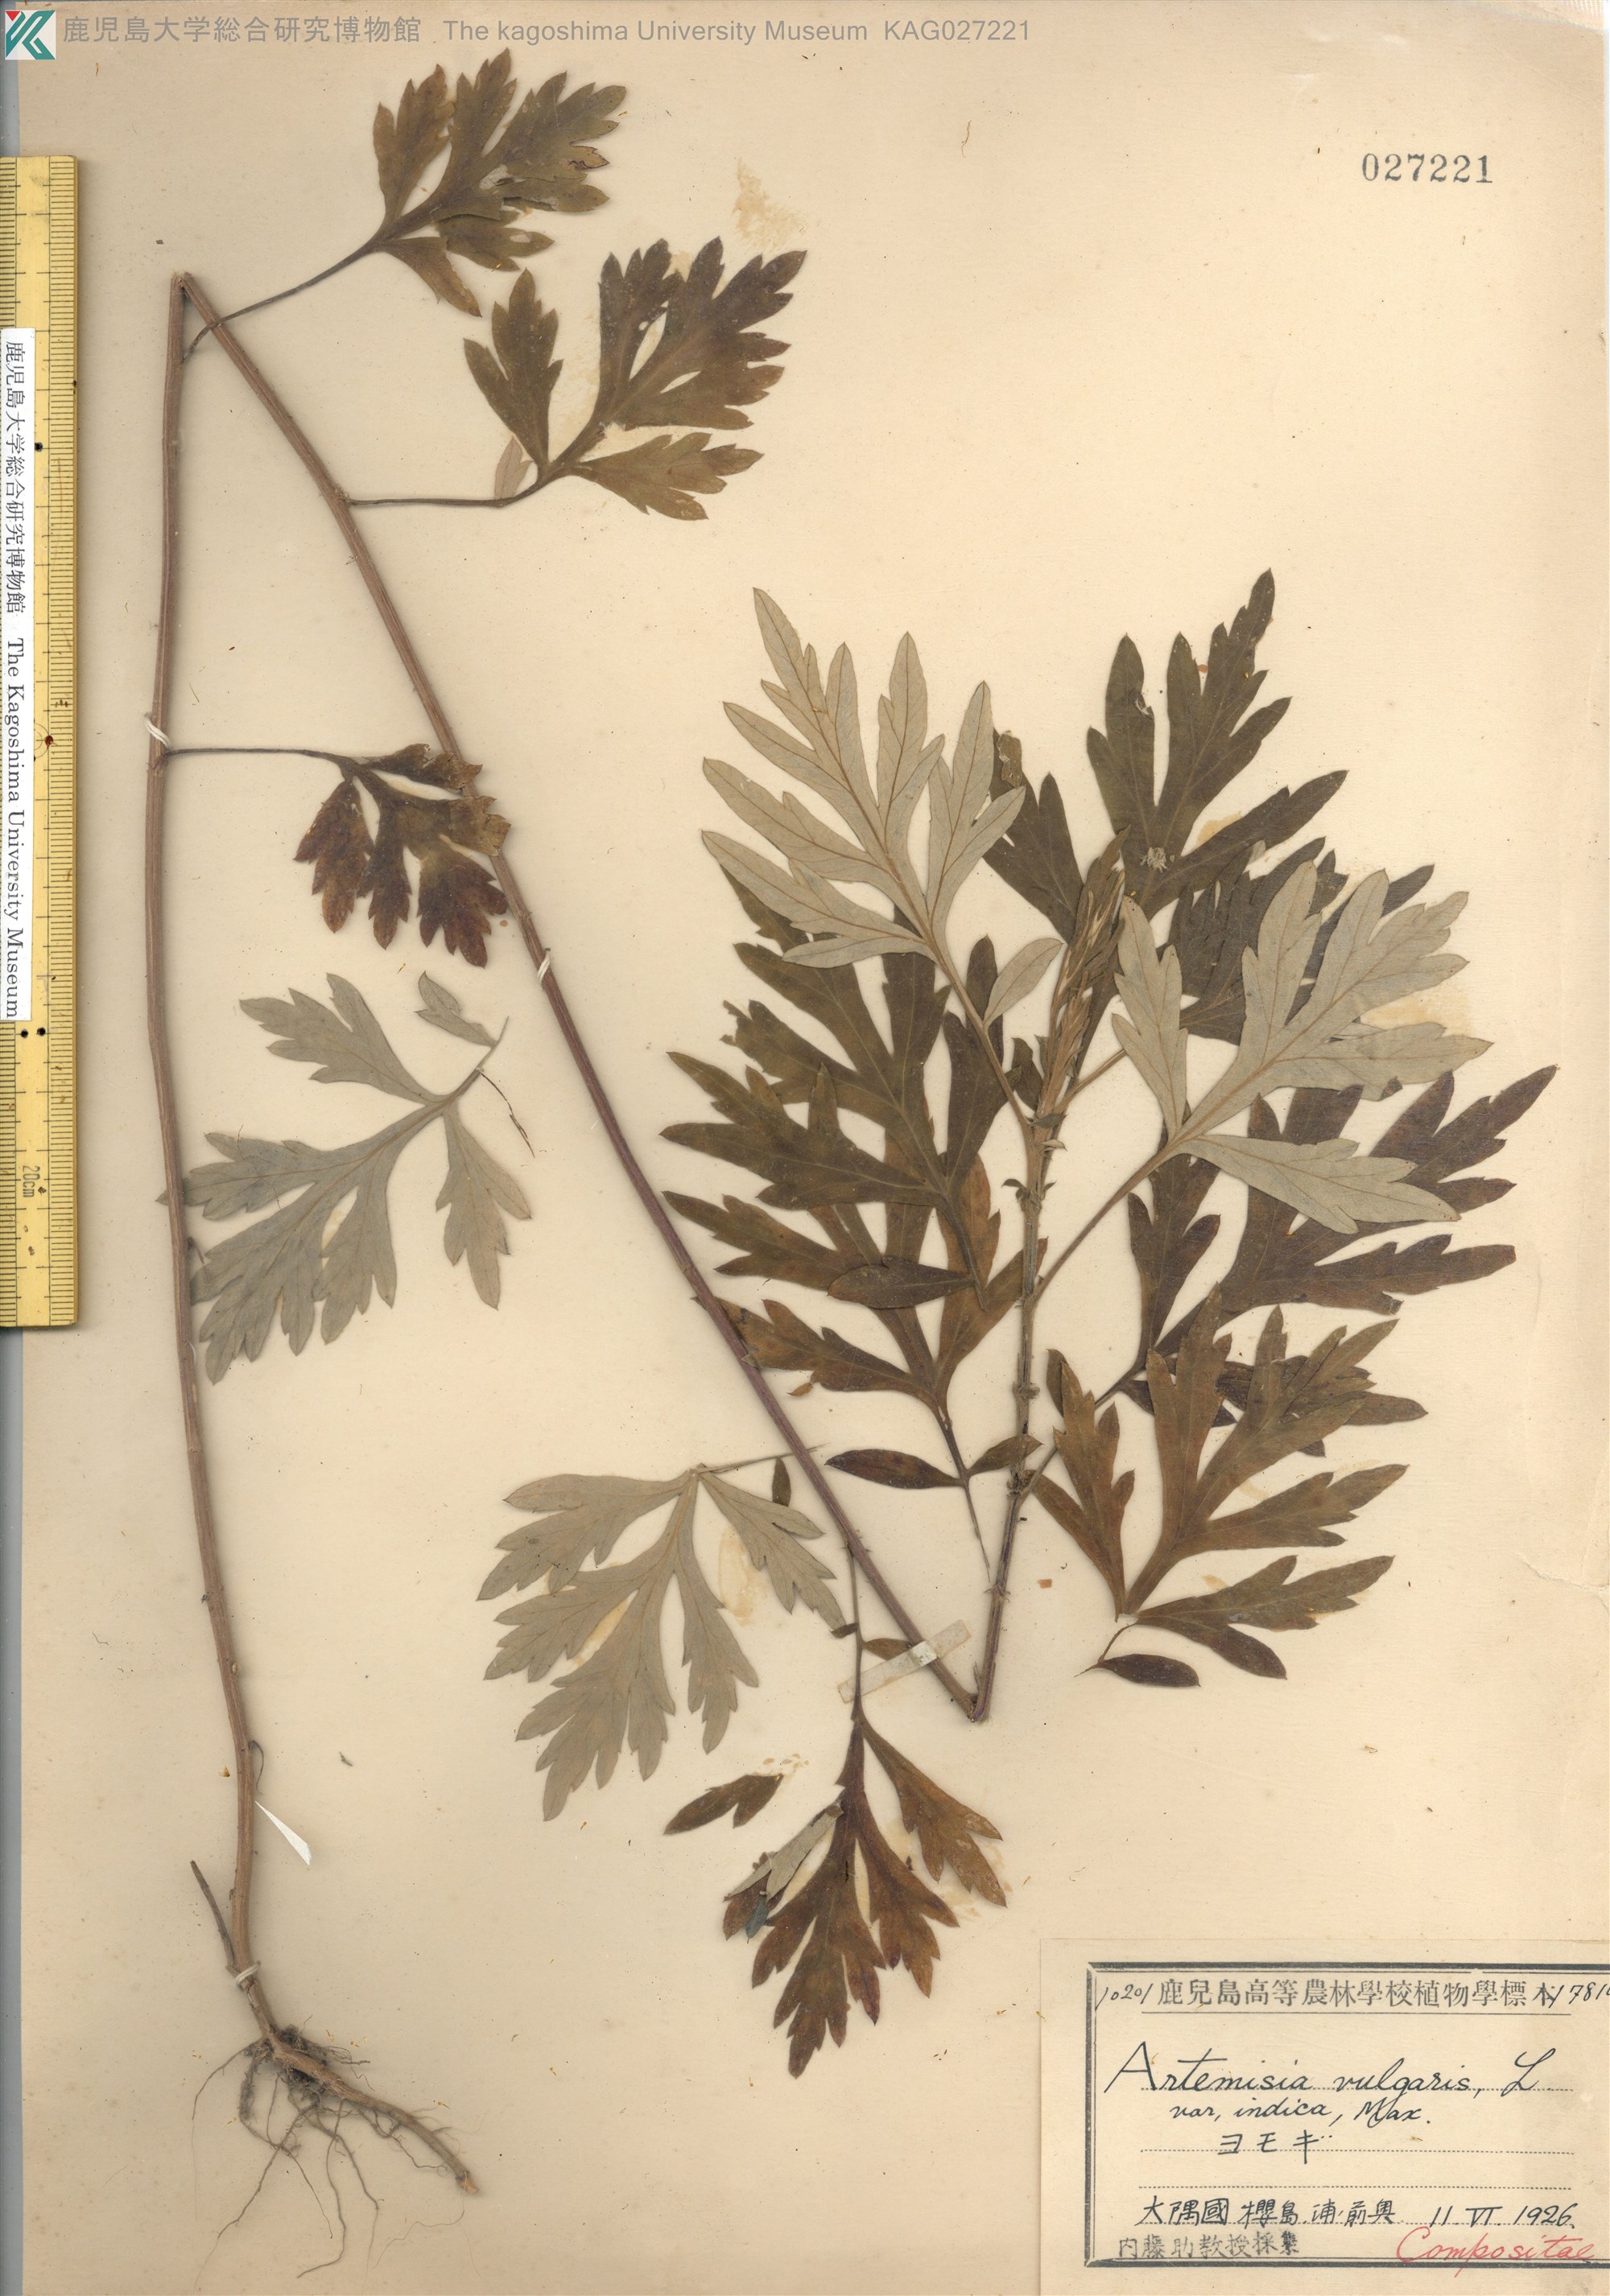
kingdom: Plantae
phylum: Tracheophyta
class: Magnoliopsida
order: Asterales
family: Asteraceae
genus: Artemisia
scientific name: Artemisia princeps
